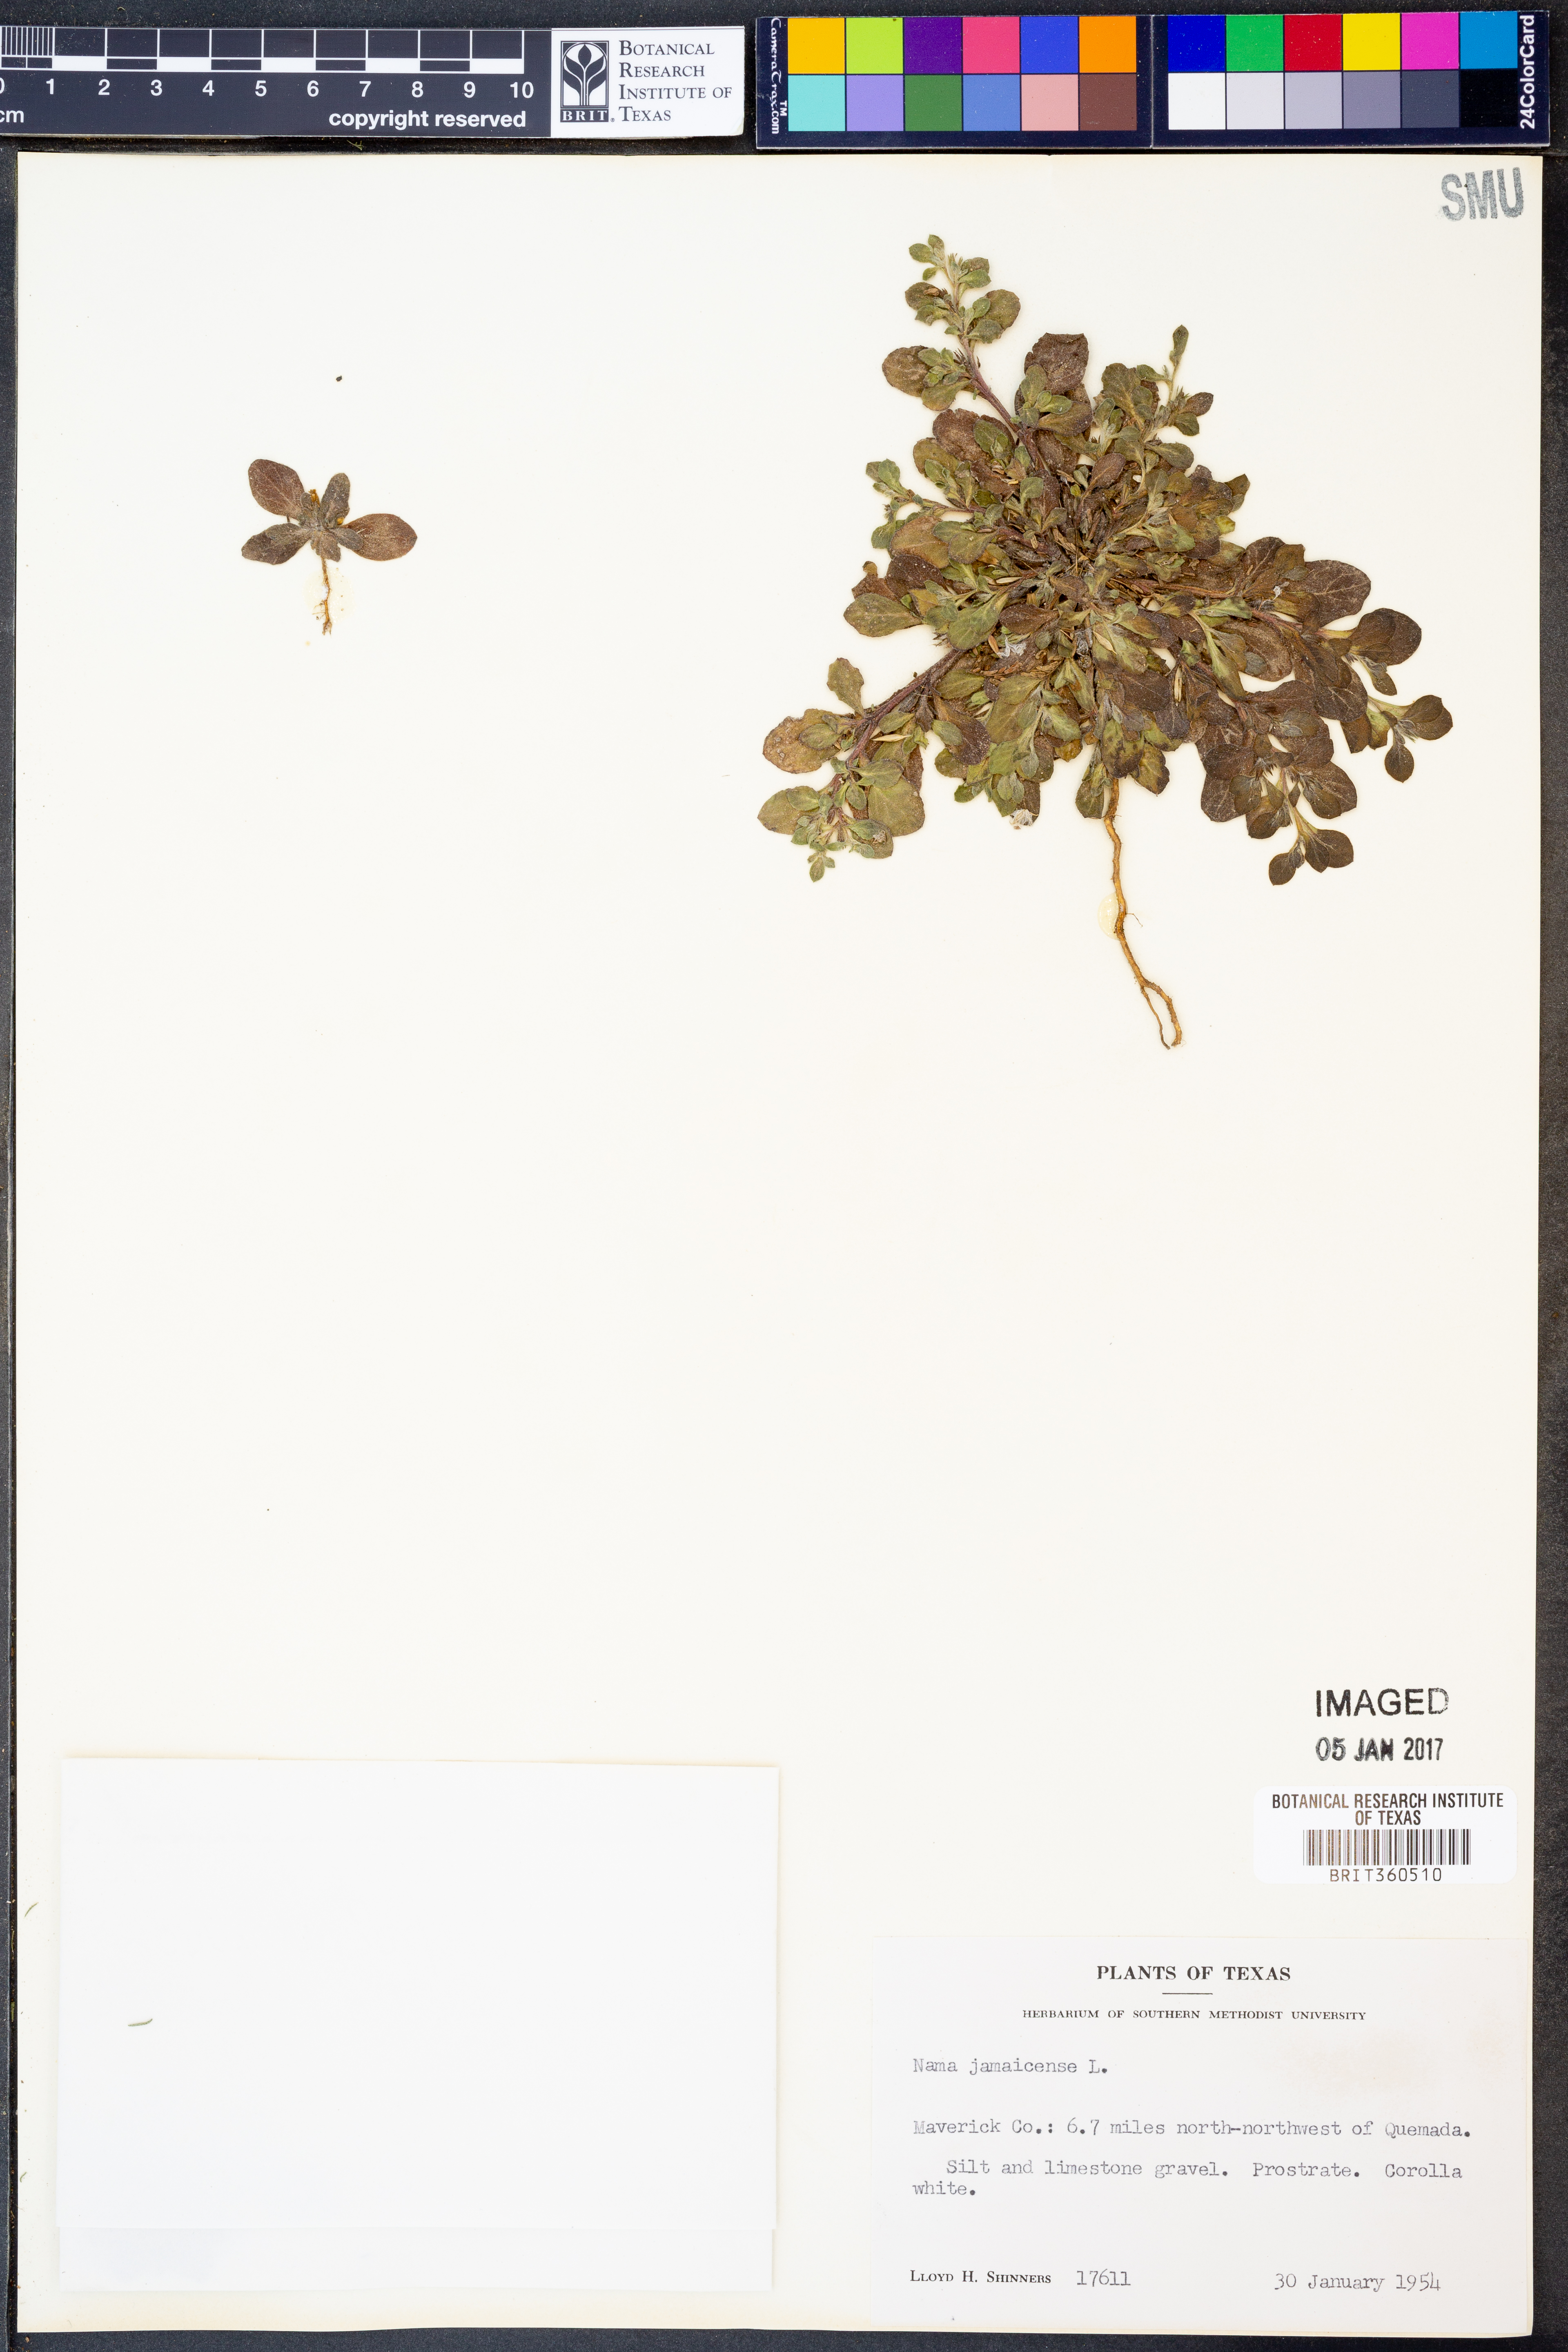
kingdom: Plantae
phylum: Tracheophyta
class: Magnoliopsida
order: Boraginales
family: Namaceae
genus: Nama
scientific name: Nama jamaicense
